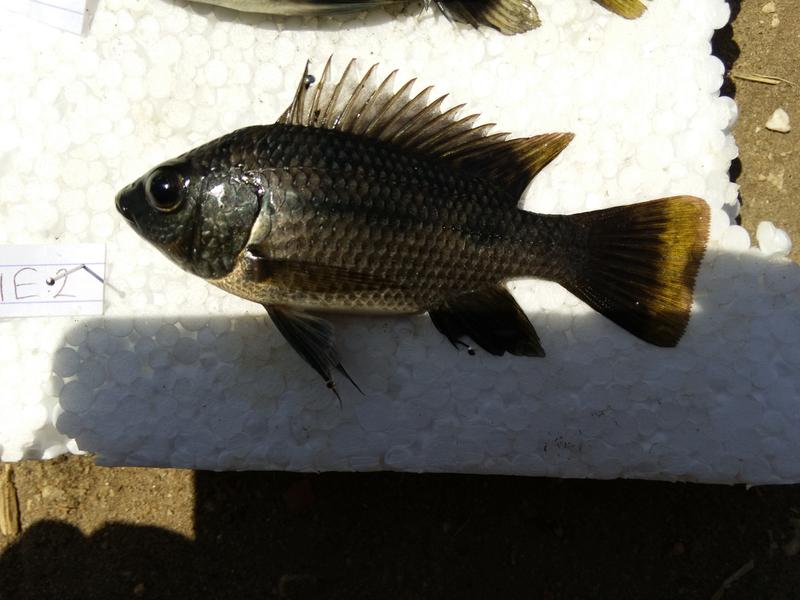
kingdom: Animalia
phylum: Chordata
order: Perciformes
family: Cichlidae
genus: Oreochromis
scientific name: Oreochromis urolepis
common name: Wami tilapia
